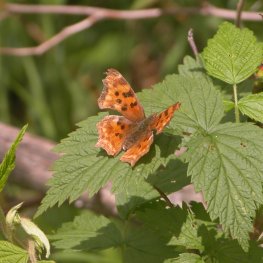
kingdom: Animalia
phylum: Arthropoda
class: Insecta
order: Lepidoptera
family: Nymphalidae
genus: Polygonia
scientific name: Polygonia satyrus
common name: Satyr Comma
